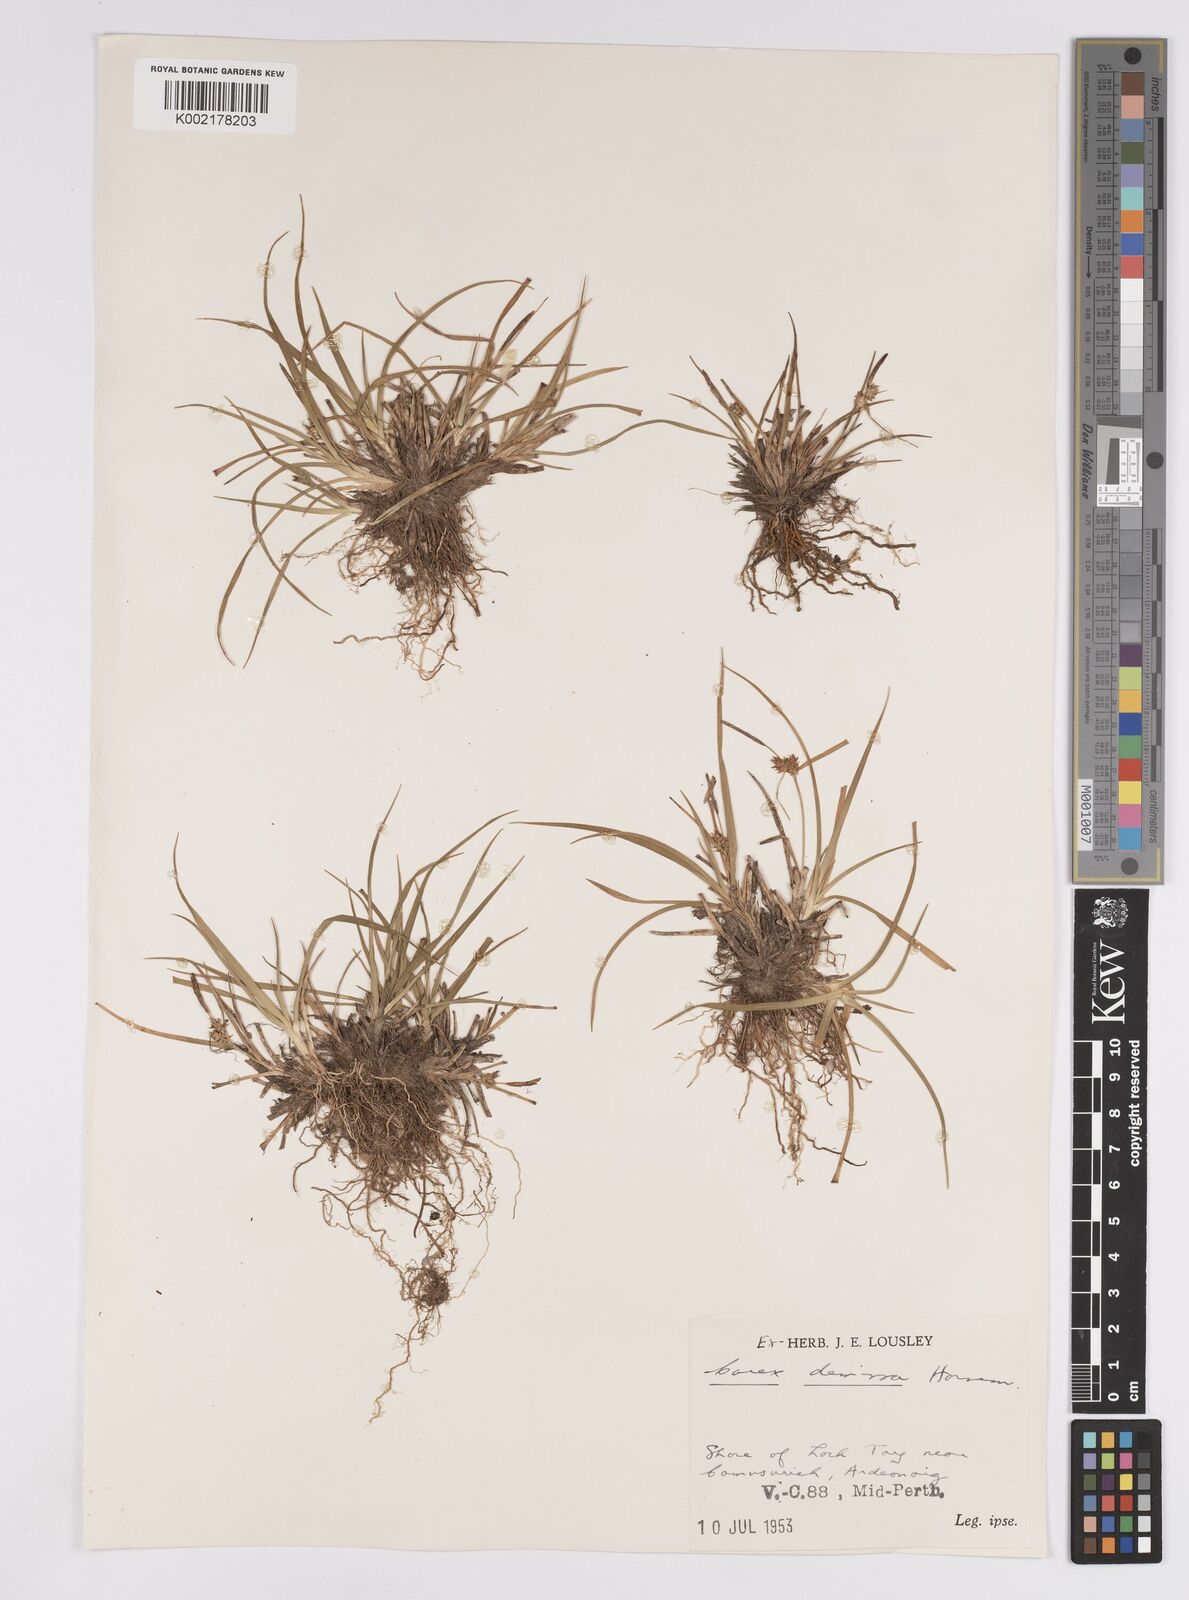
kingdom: Plantae
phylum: Tracheophyta
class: Liliopsida
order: Poales
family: Cyperaceae
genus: Carex
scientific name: Carex demissa
